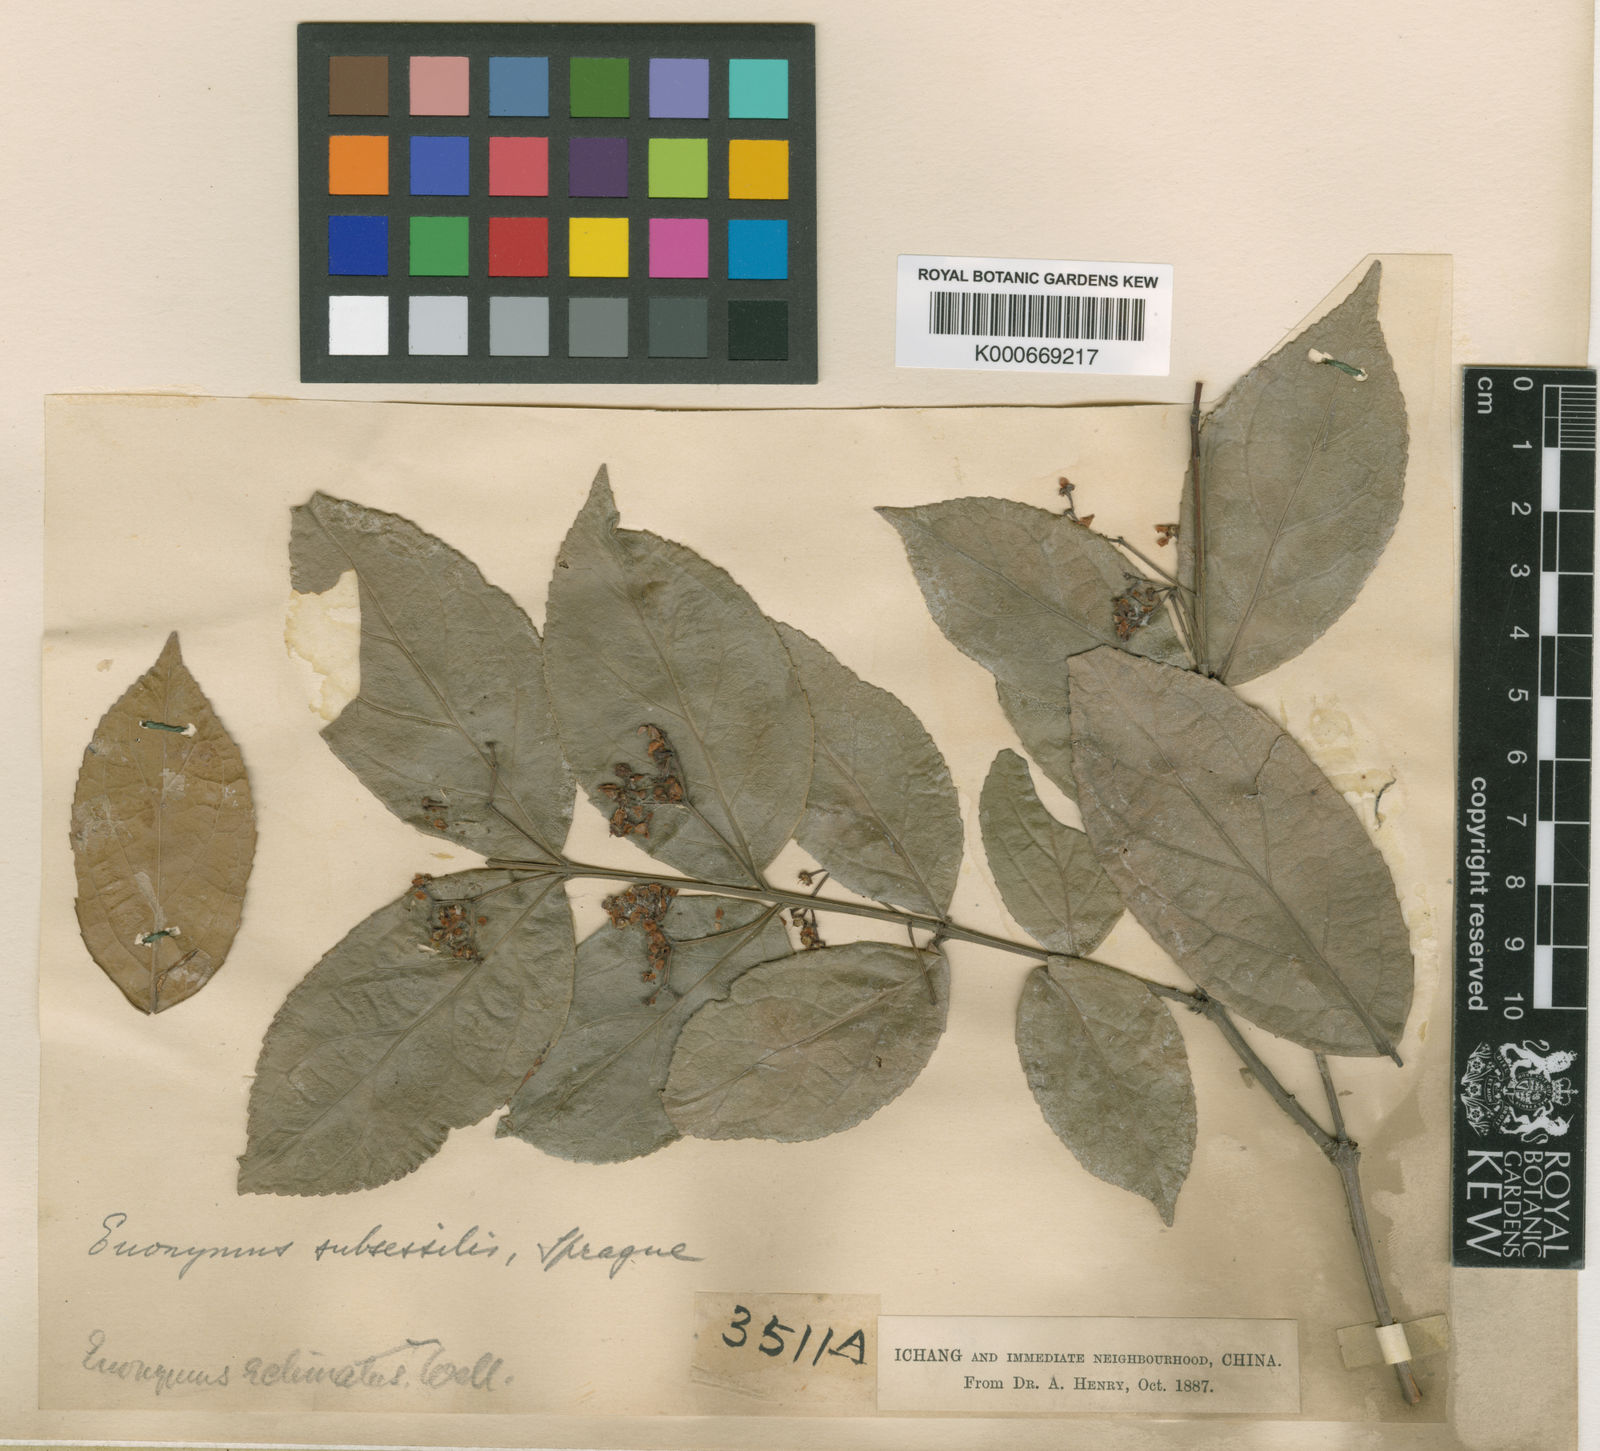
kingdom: Plantae
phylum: Tracheophyta
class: Magnoliopsida
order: Celastrales
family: Celastraceae
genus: Euonymus
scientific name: Euonymus echinatus
